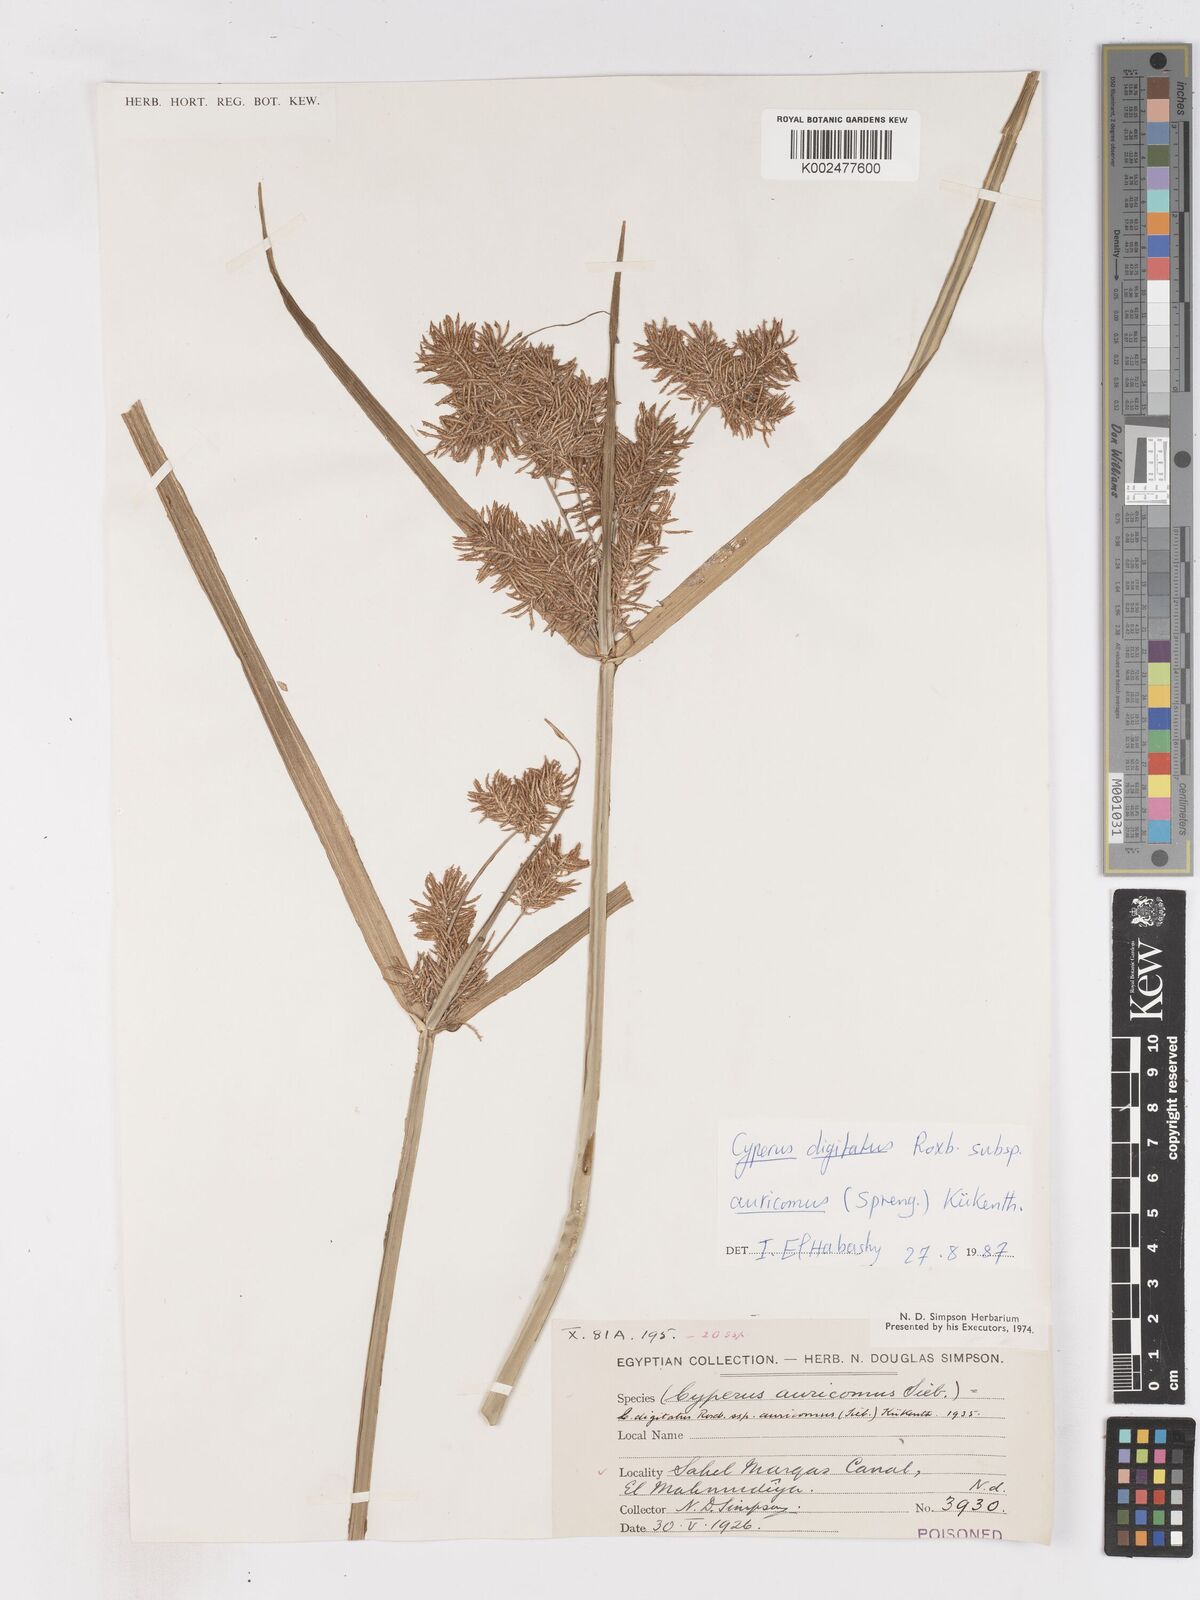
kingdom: Plantae
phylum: Tracheophyta
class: Liliopsida
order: Poales
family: Cyperaceae
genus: Cyperus
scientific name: Cyperus digitatus
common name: Finger flatsedge
